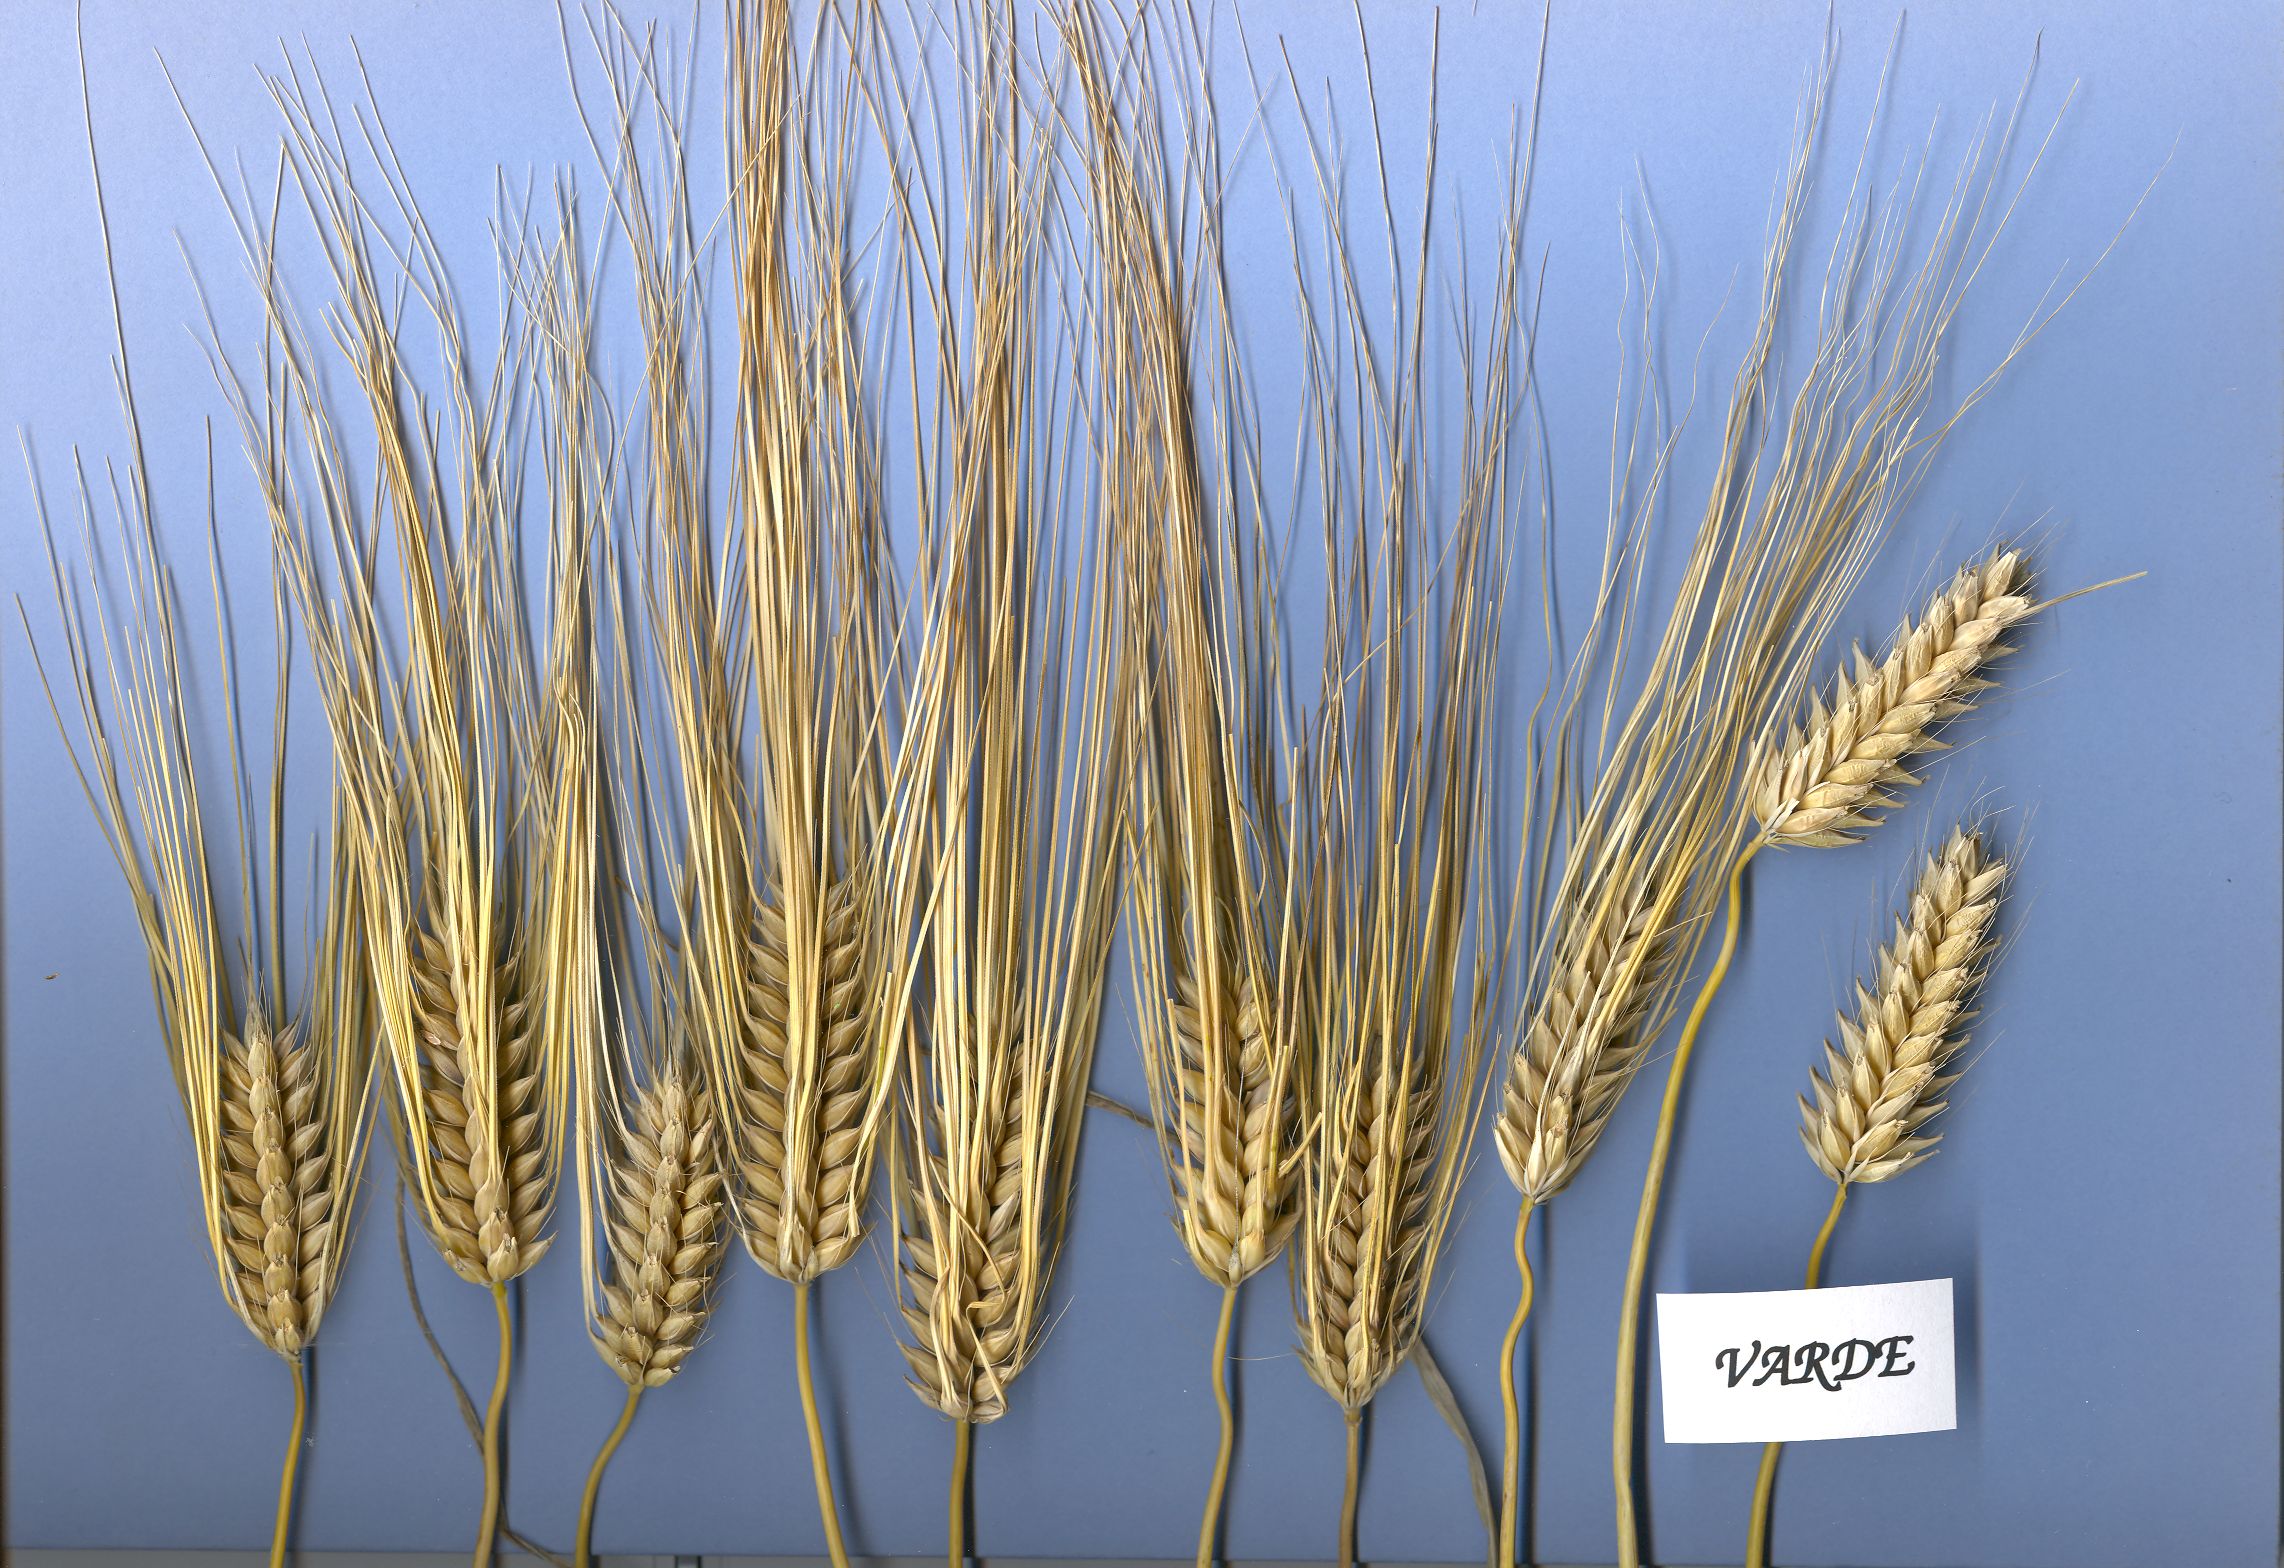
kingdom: Plantae
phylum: Tracheophyta
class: Liliopsida
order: Poales
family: Poaceae
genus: Hordeum
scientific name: Hordeum vulgare
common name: Common barley
